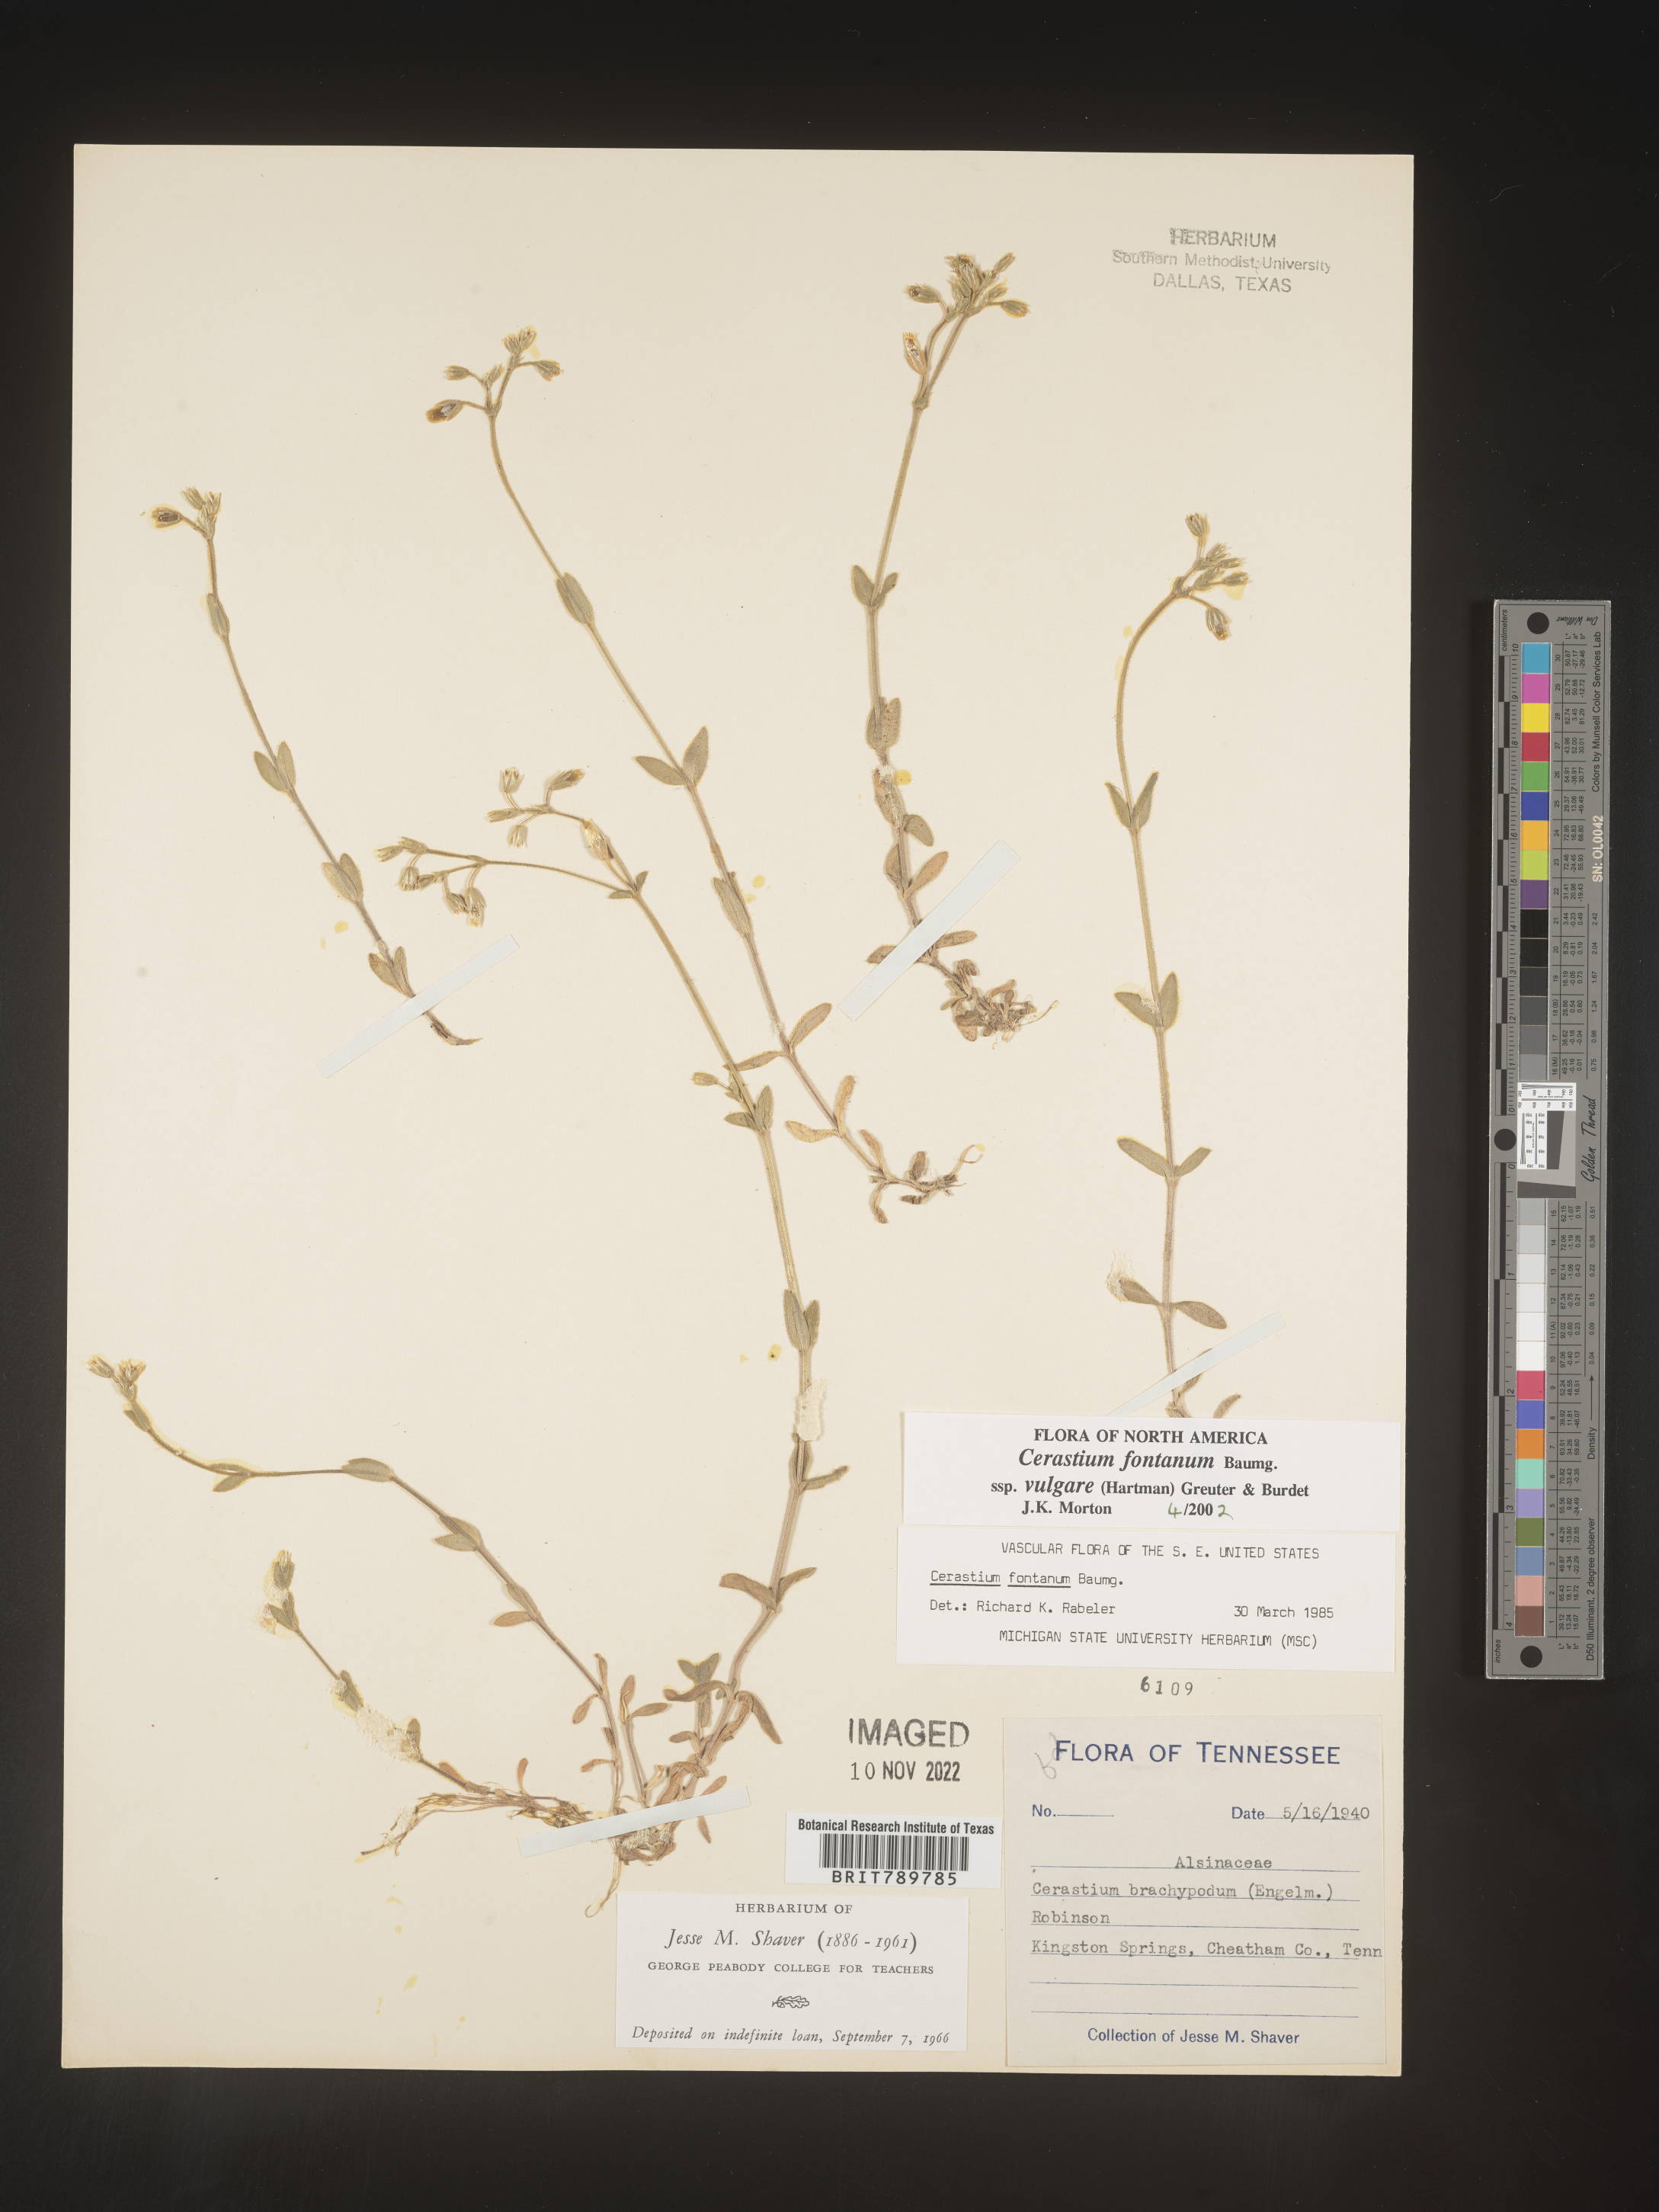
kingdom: Plantae
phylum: Tracheophyta
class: Magnoliopsida
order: Caryophyllales
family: Caryophyllaceae
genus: Cerastium
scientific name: Cerastium fontanum
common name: Common mouse-ear
